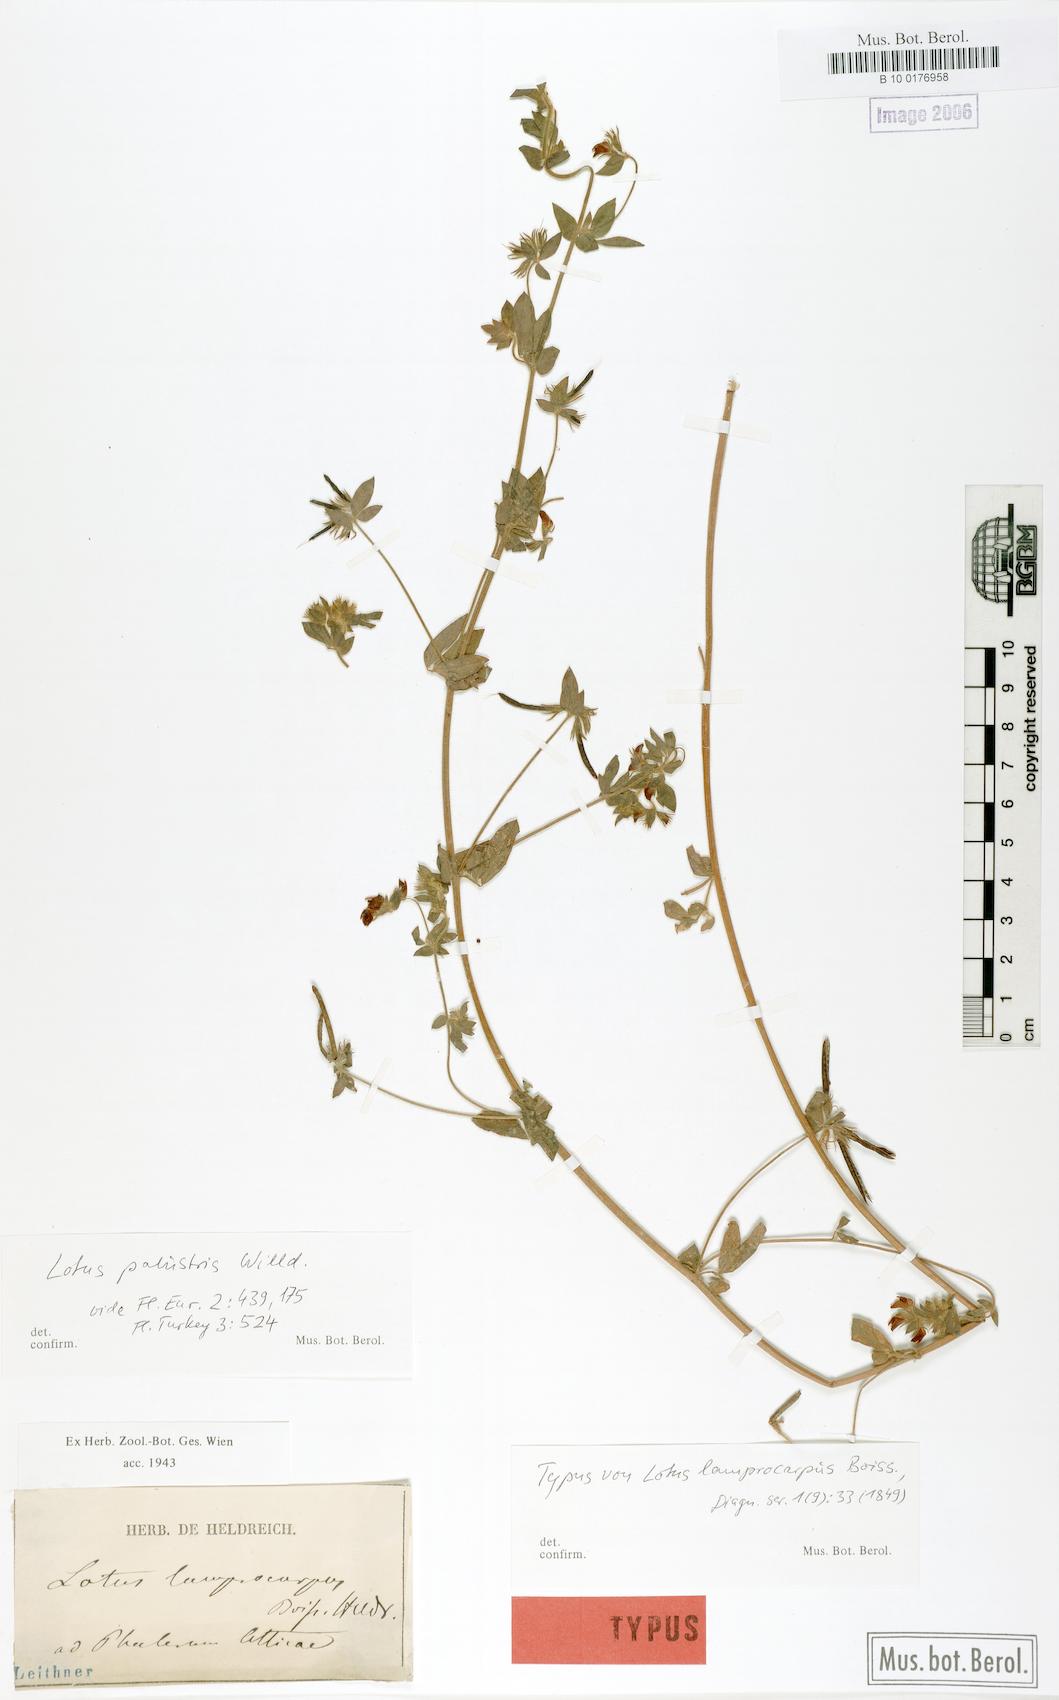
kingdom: Plantae
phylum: Tracheophyta
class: Magnoliopsida
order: Fabales
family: Fabaceae
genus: Lotus
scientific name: Lotus palustris
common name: Large birds-foot trefoil
